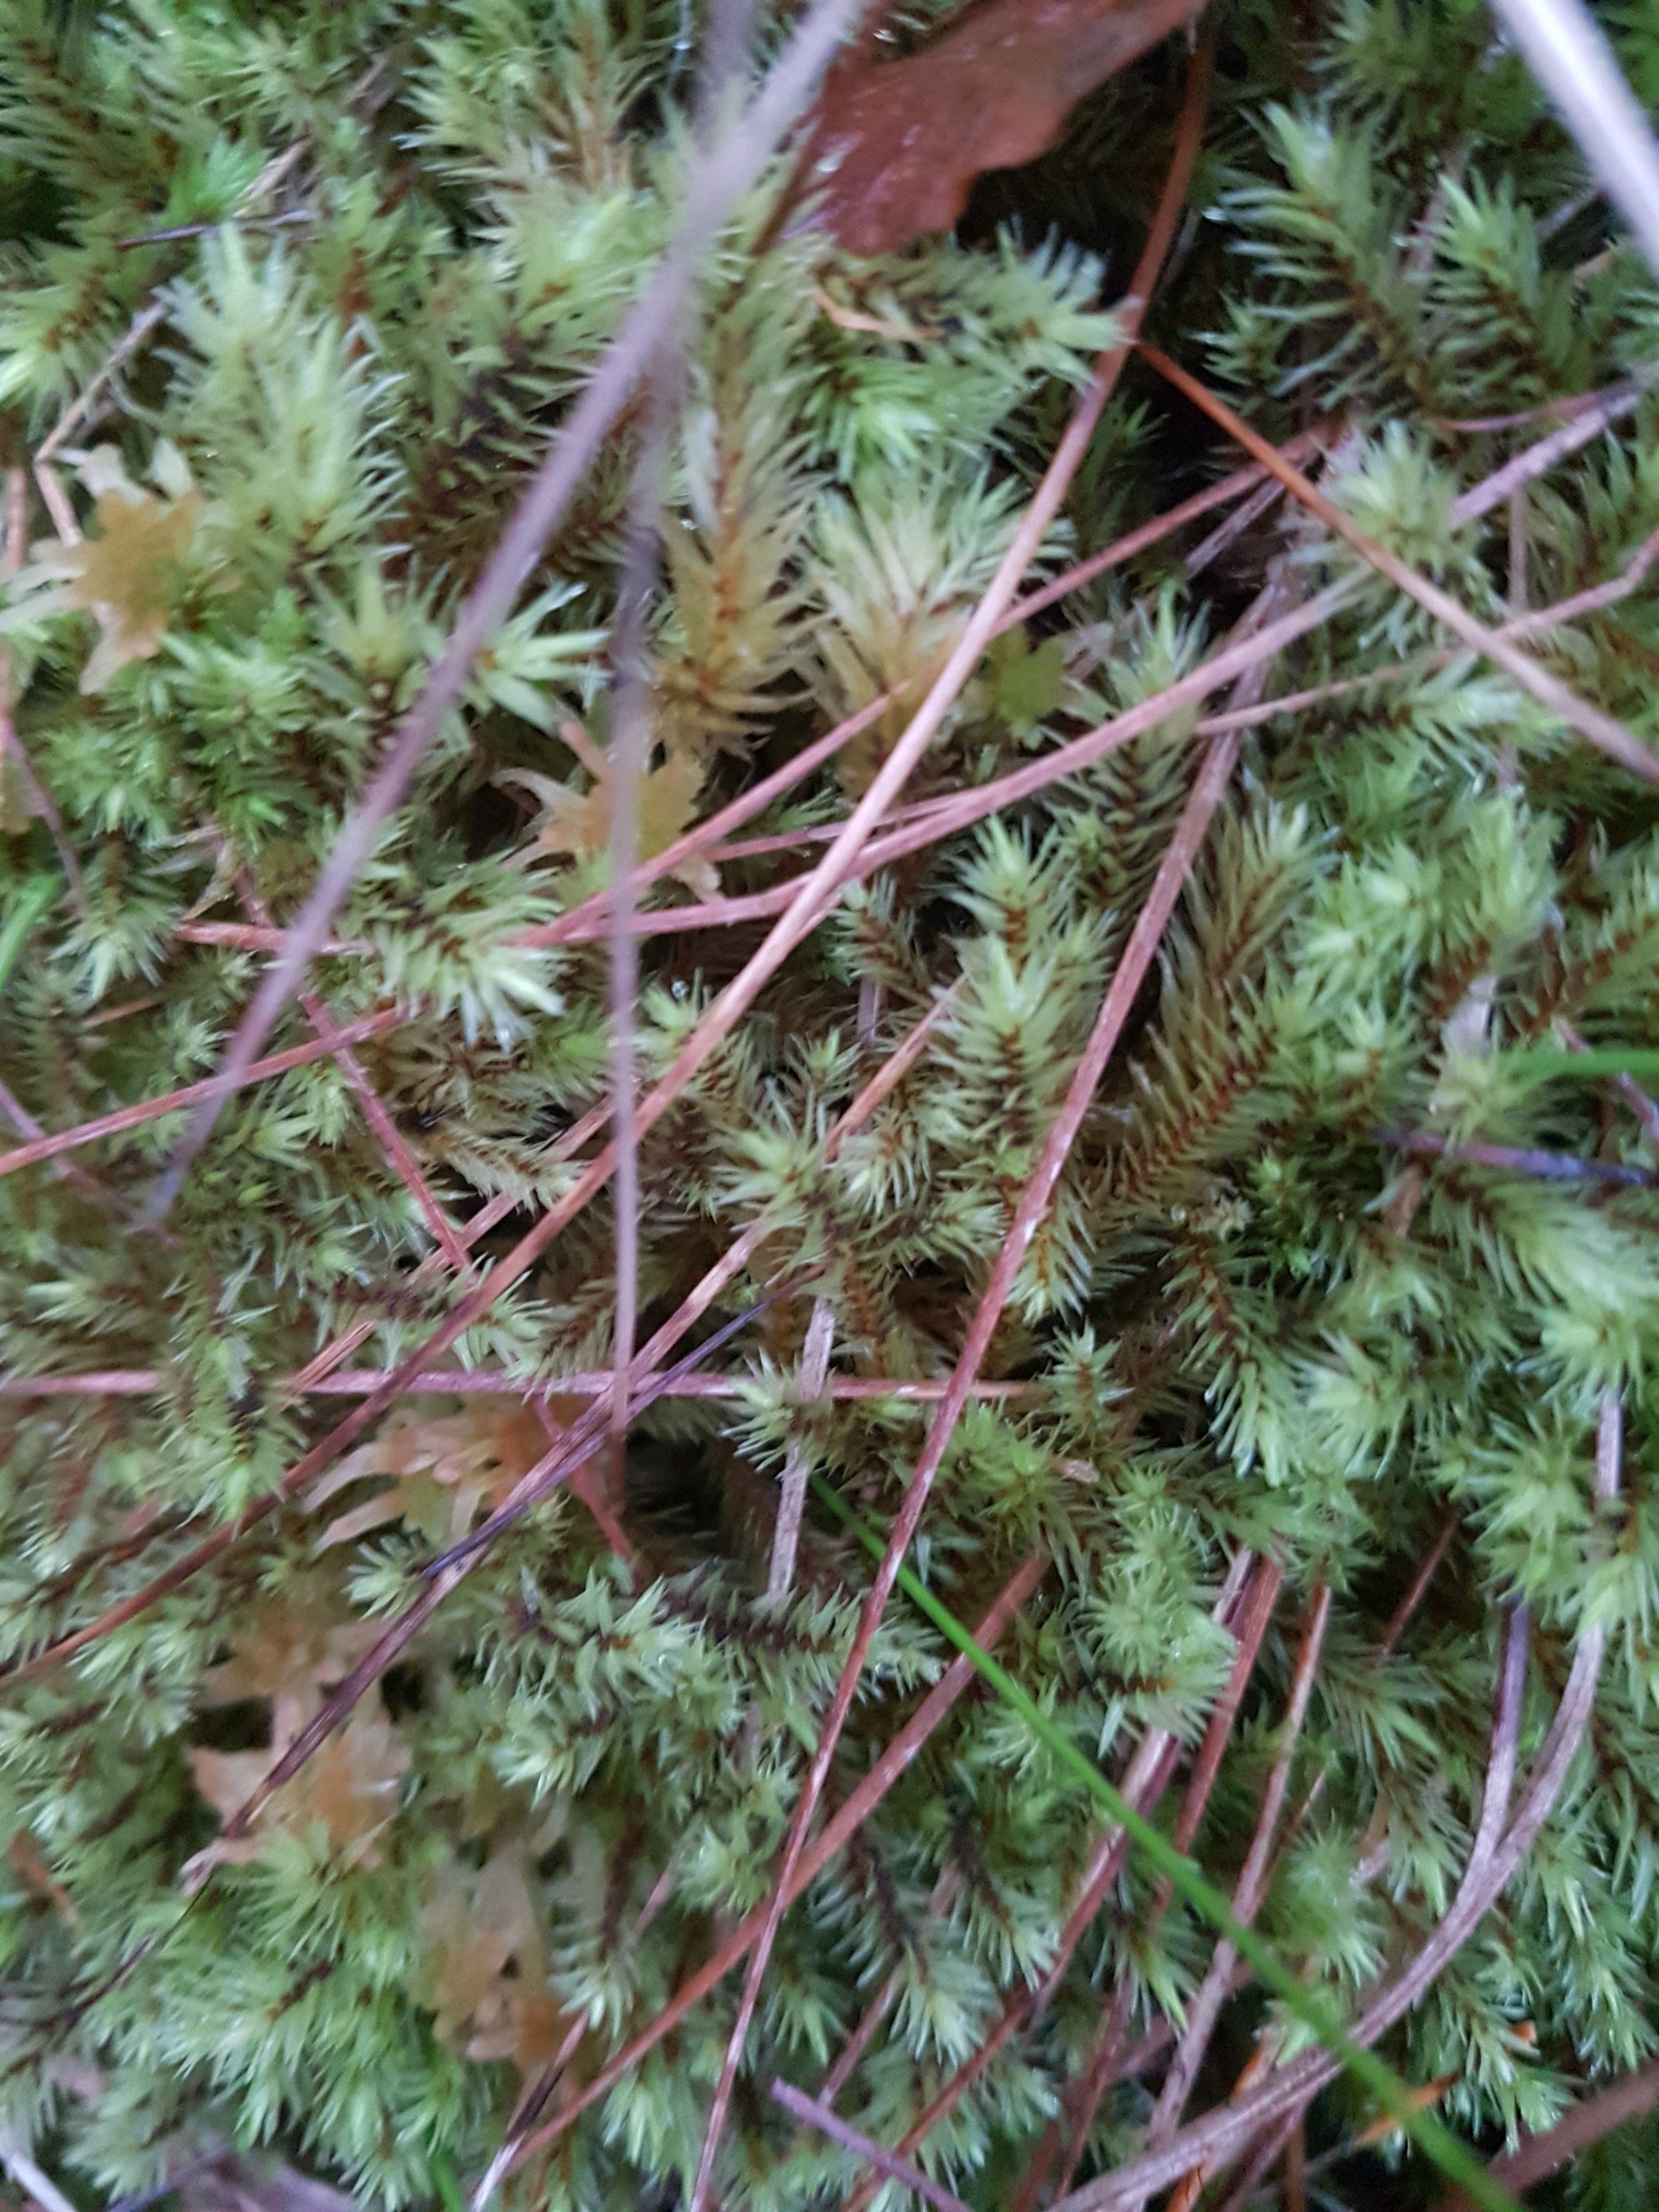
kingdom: Plantae
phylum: Bryophyta
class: Bryopsida
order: Aulacomniales
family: Aulacomniaceae
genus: Aulacomnium
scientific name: Aulacomnium palustre
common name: Almindelig filtmos
